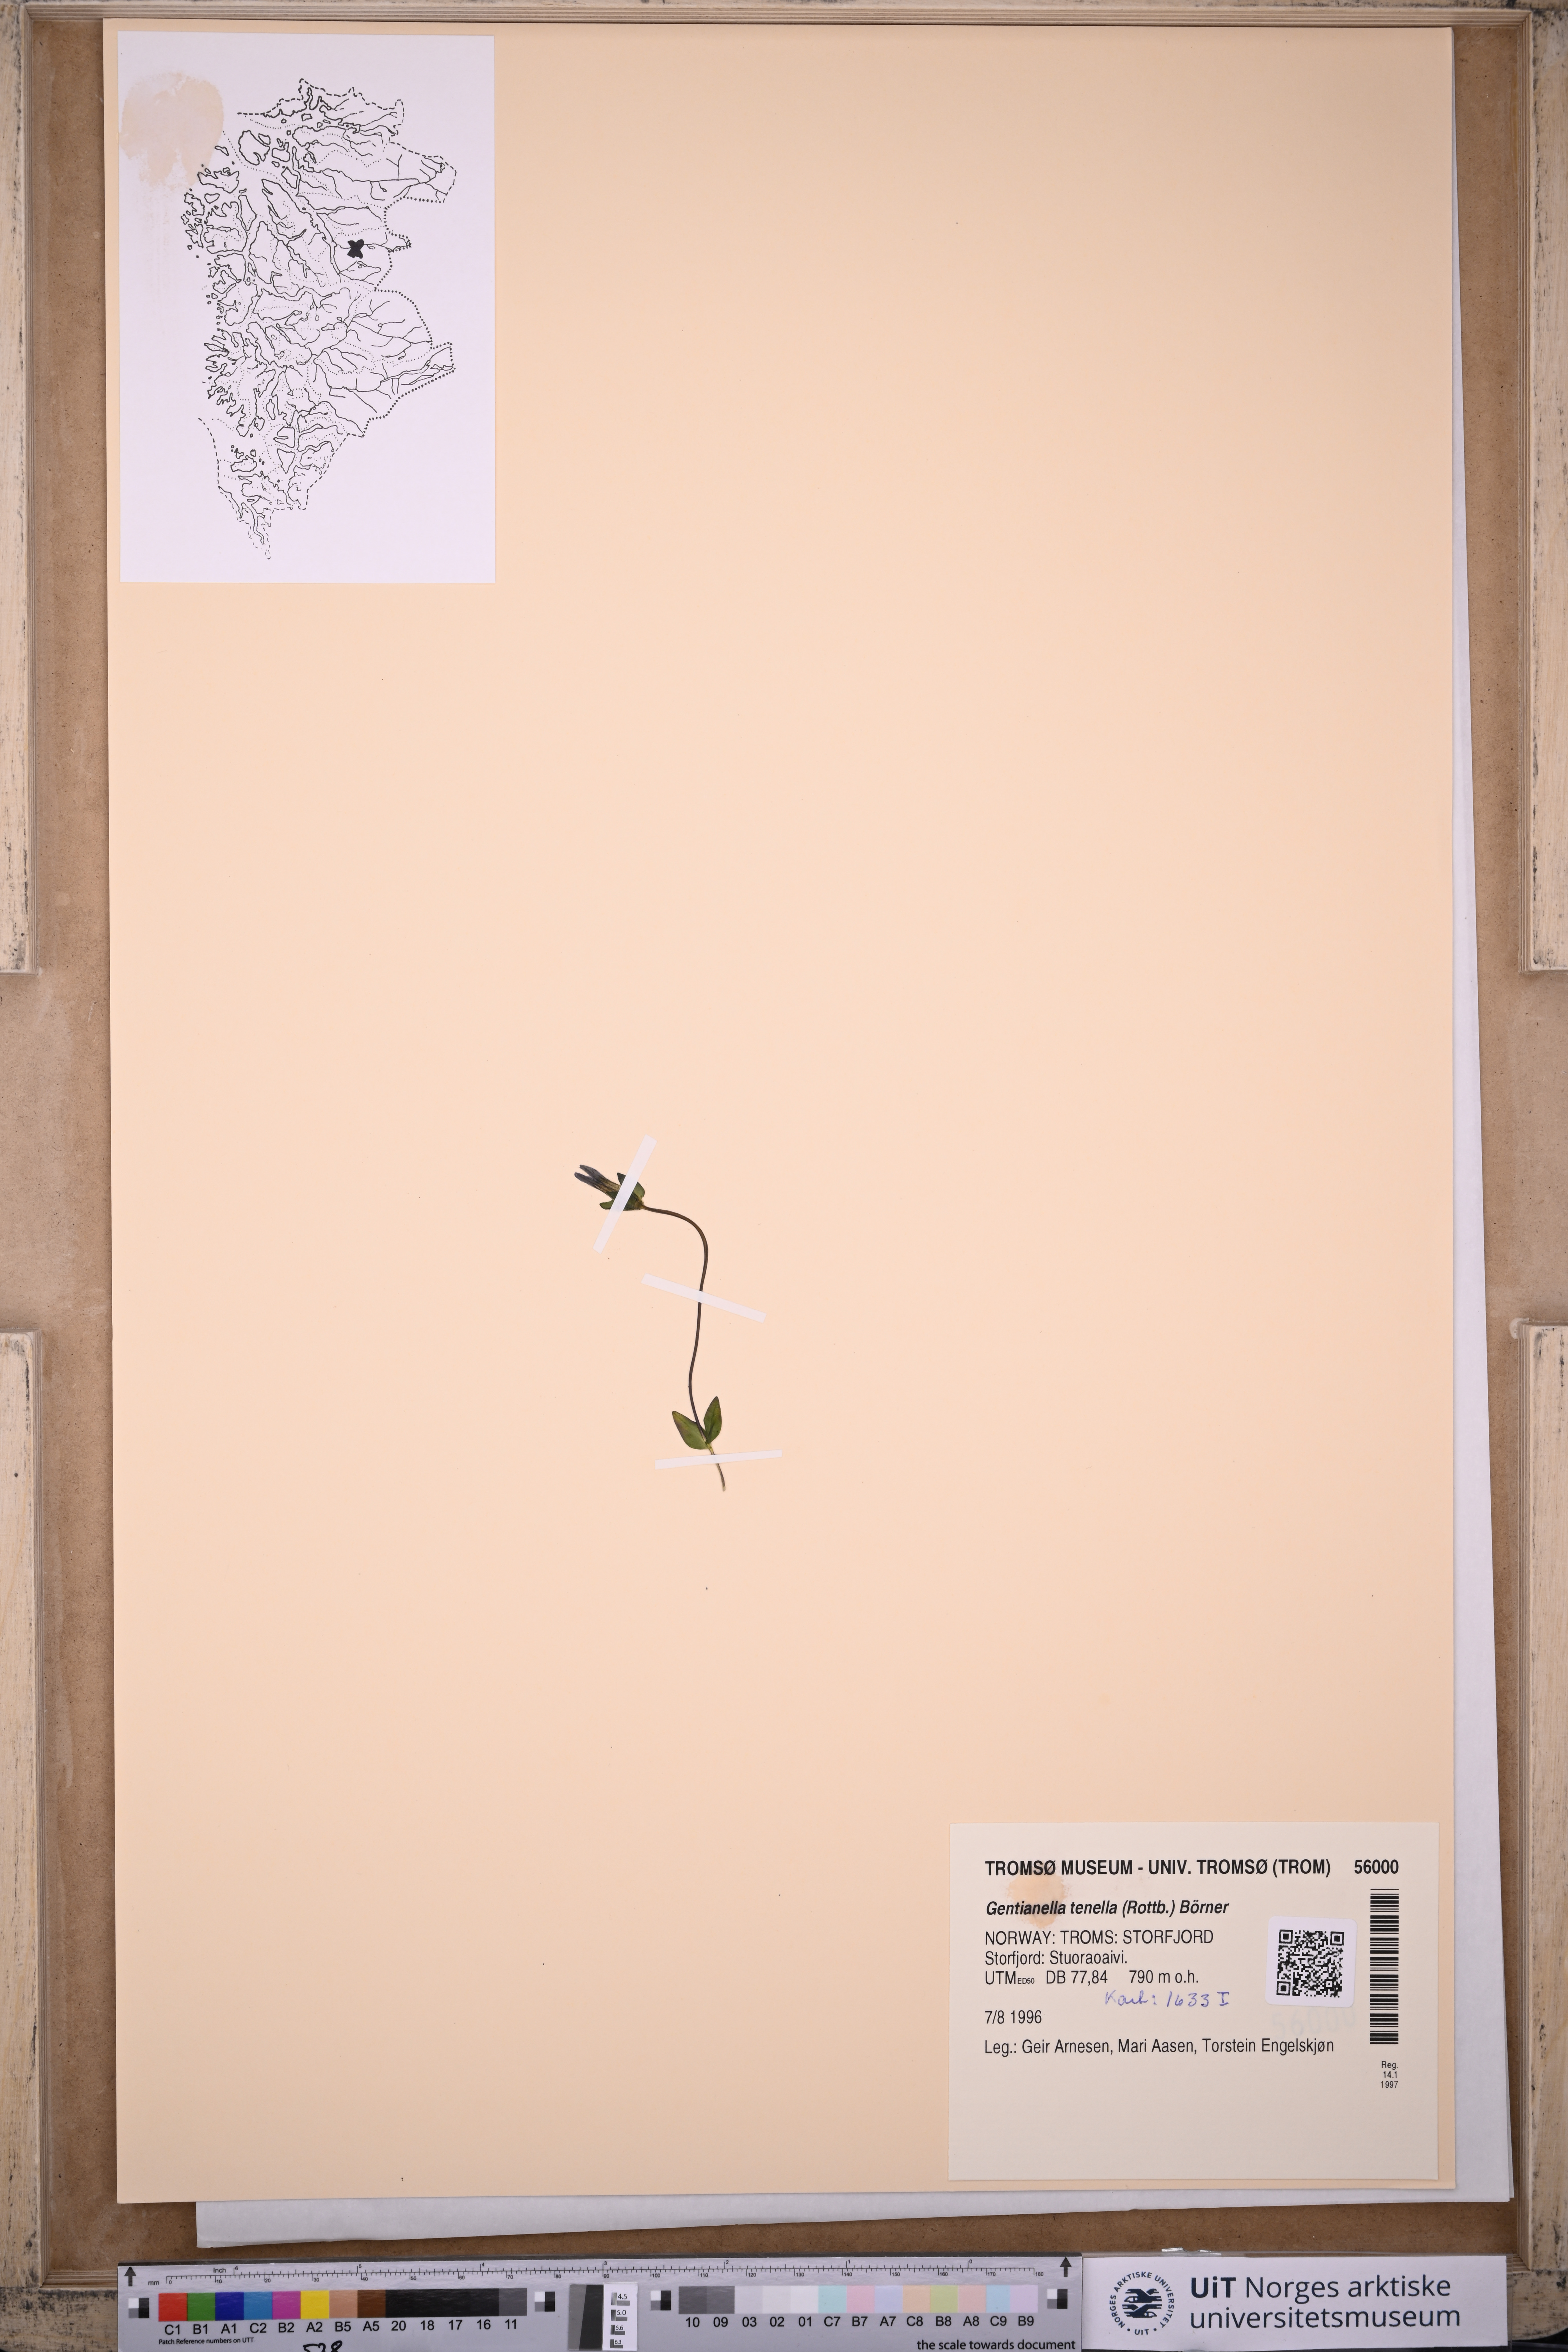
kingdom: Plantae
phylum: Tracheophyta
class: Magnoliopsida
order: Gentianales
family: Gentianaceae
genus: Comastoma
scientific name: Comastoma tenellum
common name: Dane's dwarf gentian
